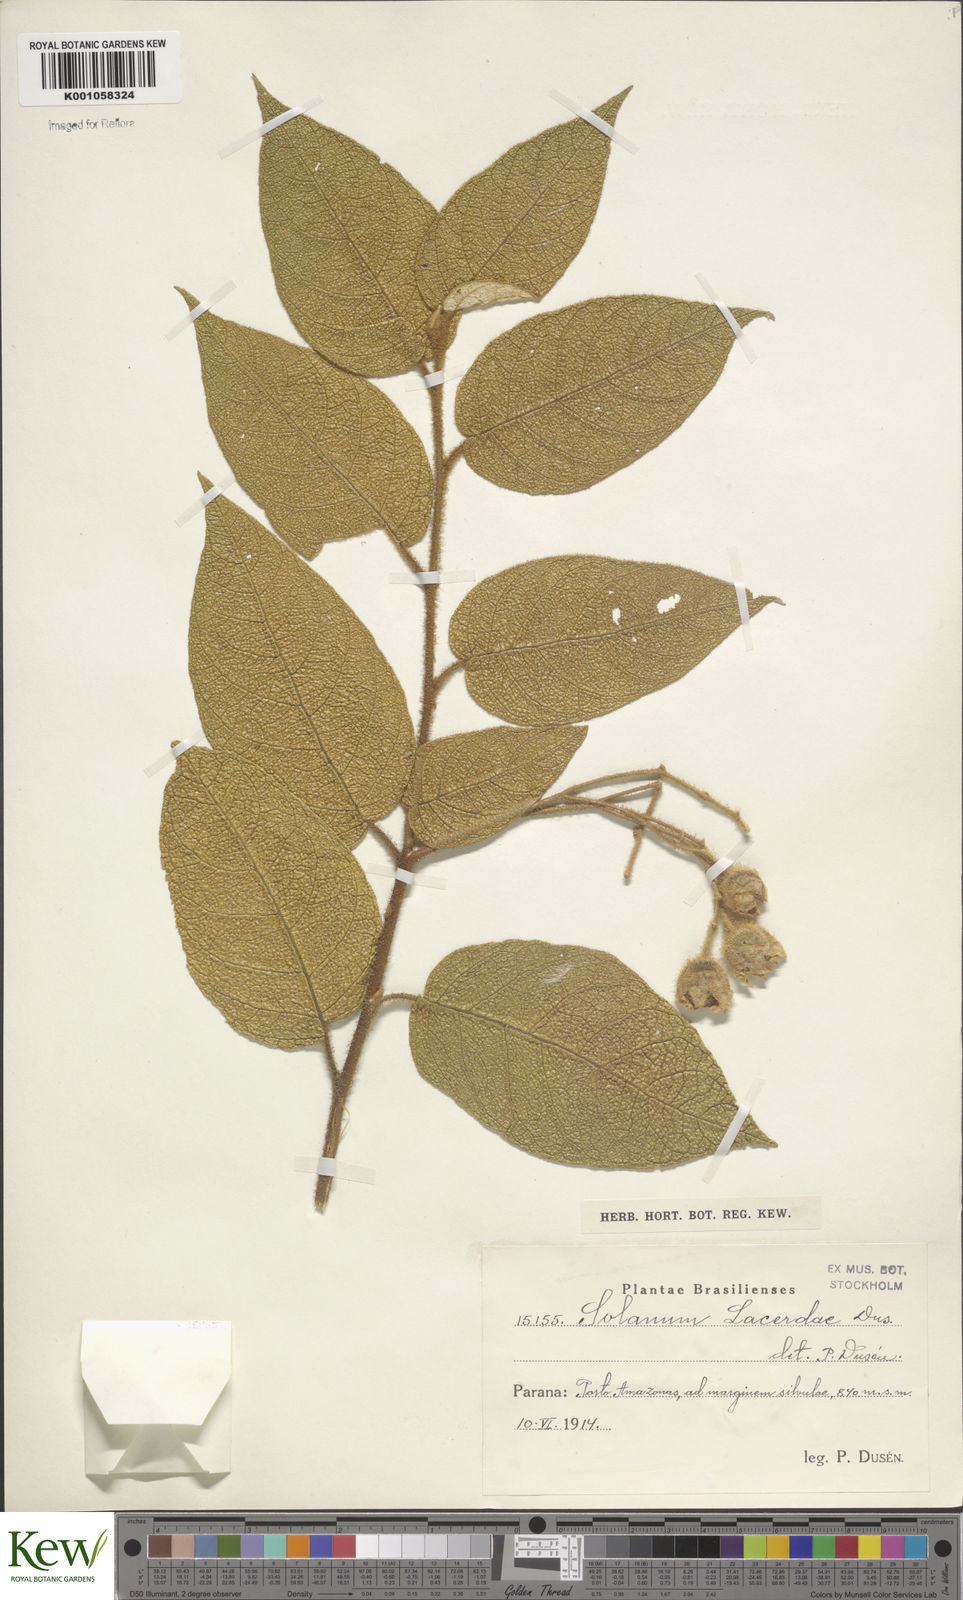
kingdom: Plantae
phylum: Tracheophyta
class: Magnoliopsida
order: Solanales
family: Solanaceae
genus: Solanum
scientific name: Solanum
